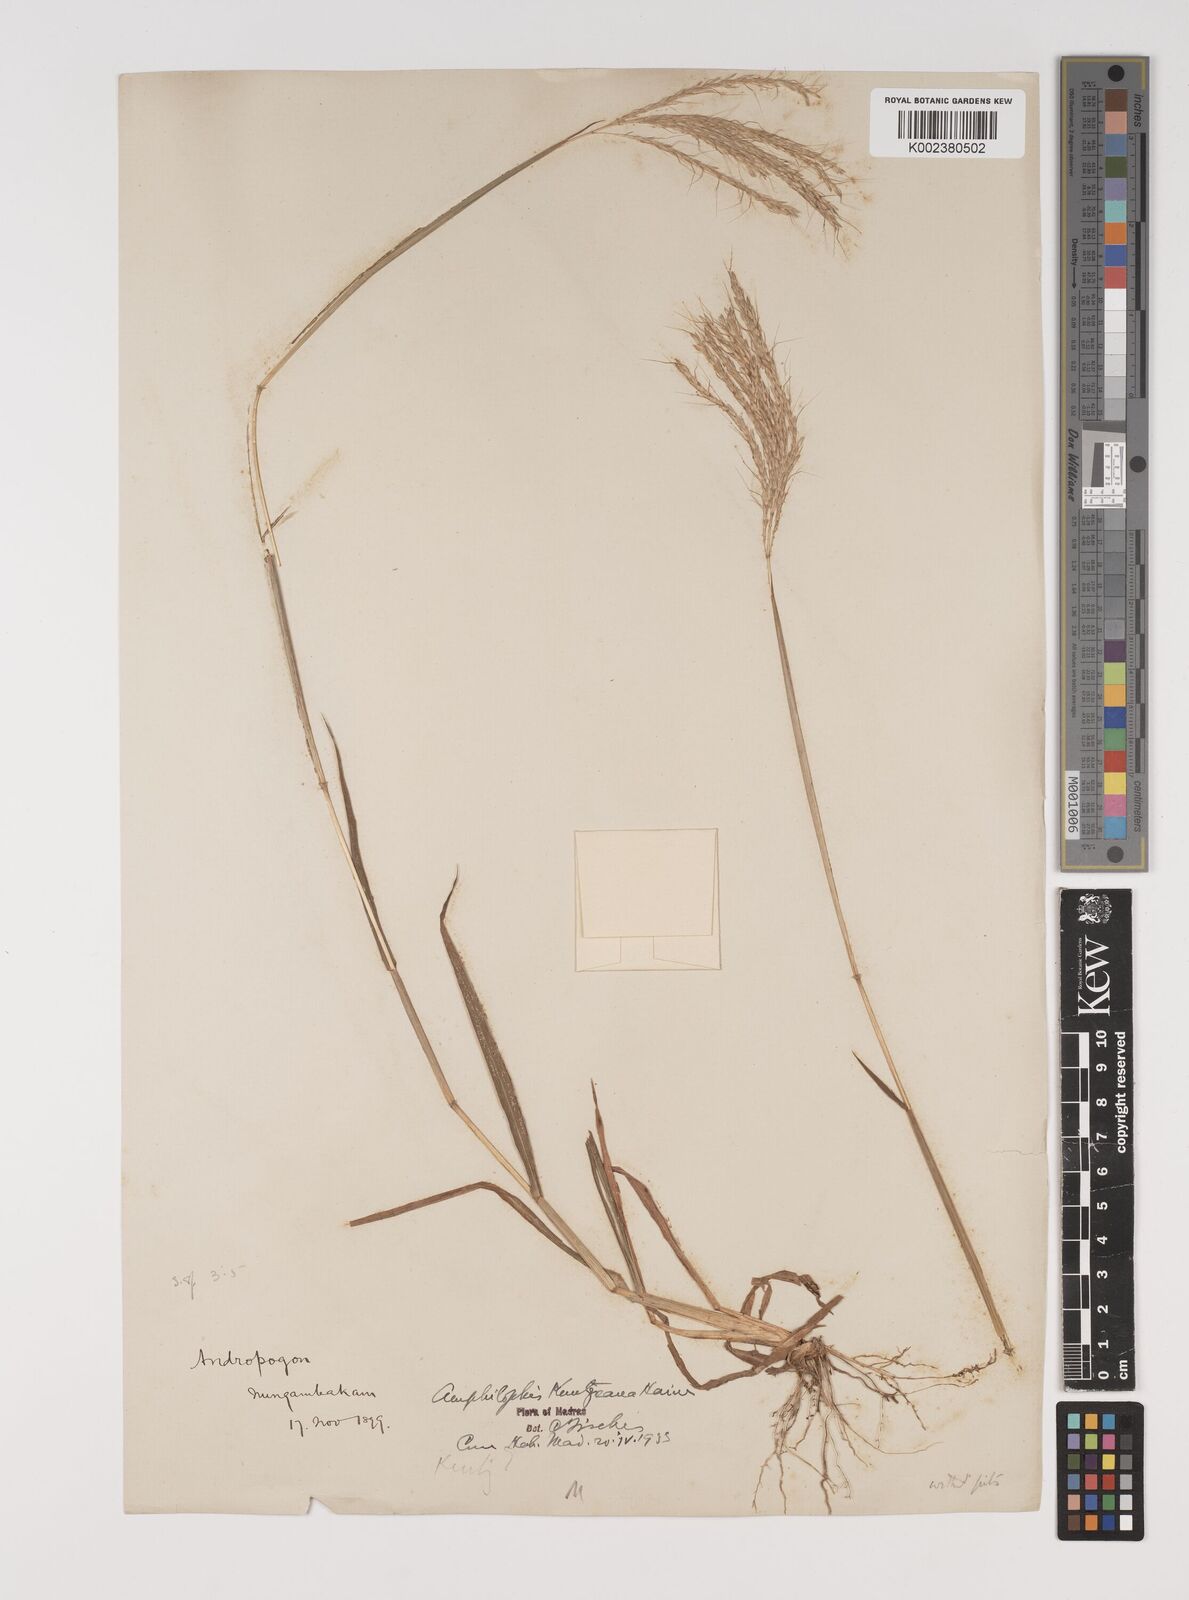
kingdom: Plantae
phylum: Tracheophyta
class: Liliopsida
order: Poales
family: Poaceae
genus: Bothriochloa
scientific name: Bothriochloa kuntzeana
